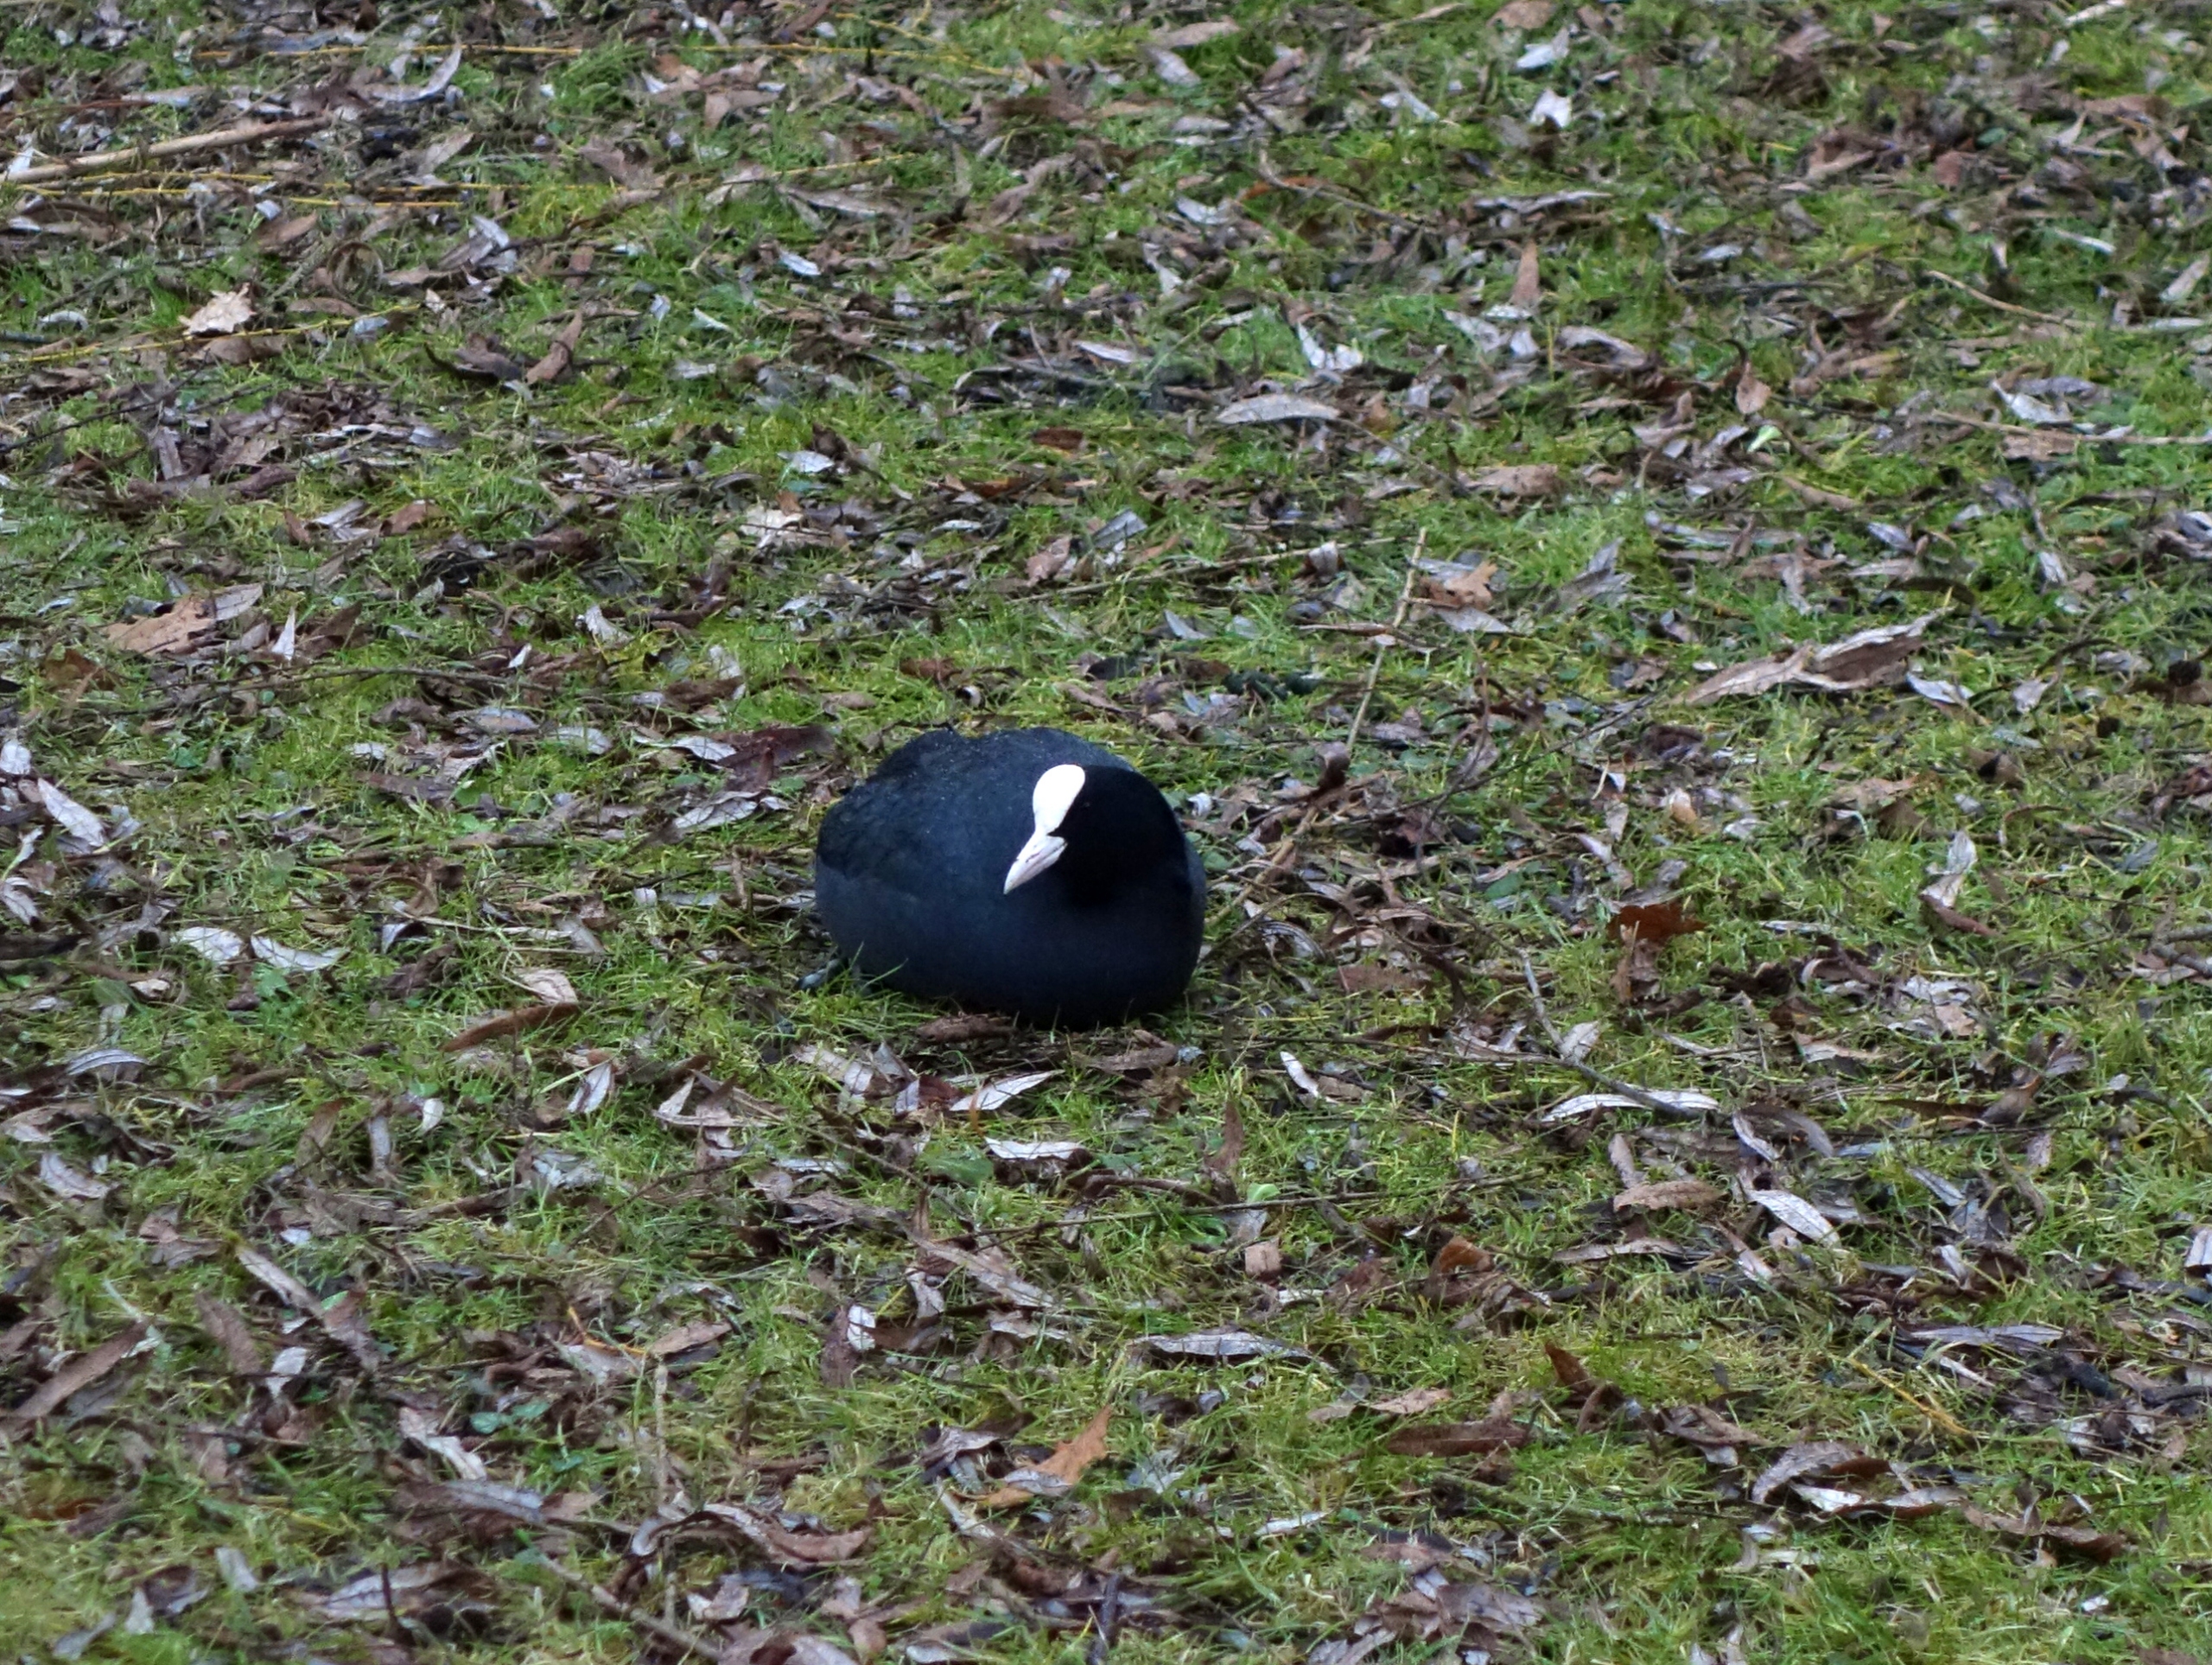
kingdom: Animalia
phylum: Chordata
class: Aves
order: Gruiformes
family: Rallidae
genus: Fulica
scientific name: Fulica atra
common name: Blishøne
